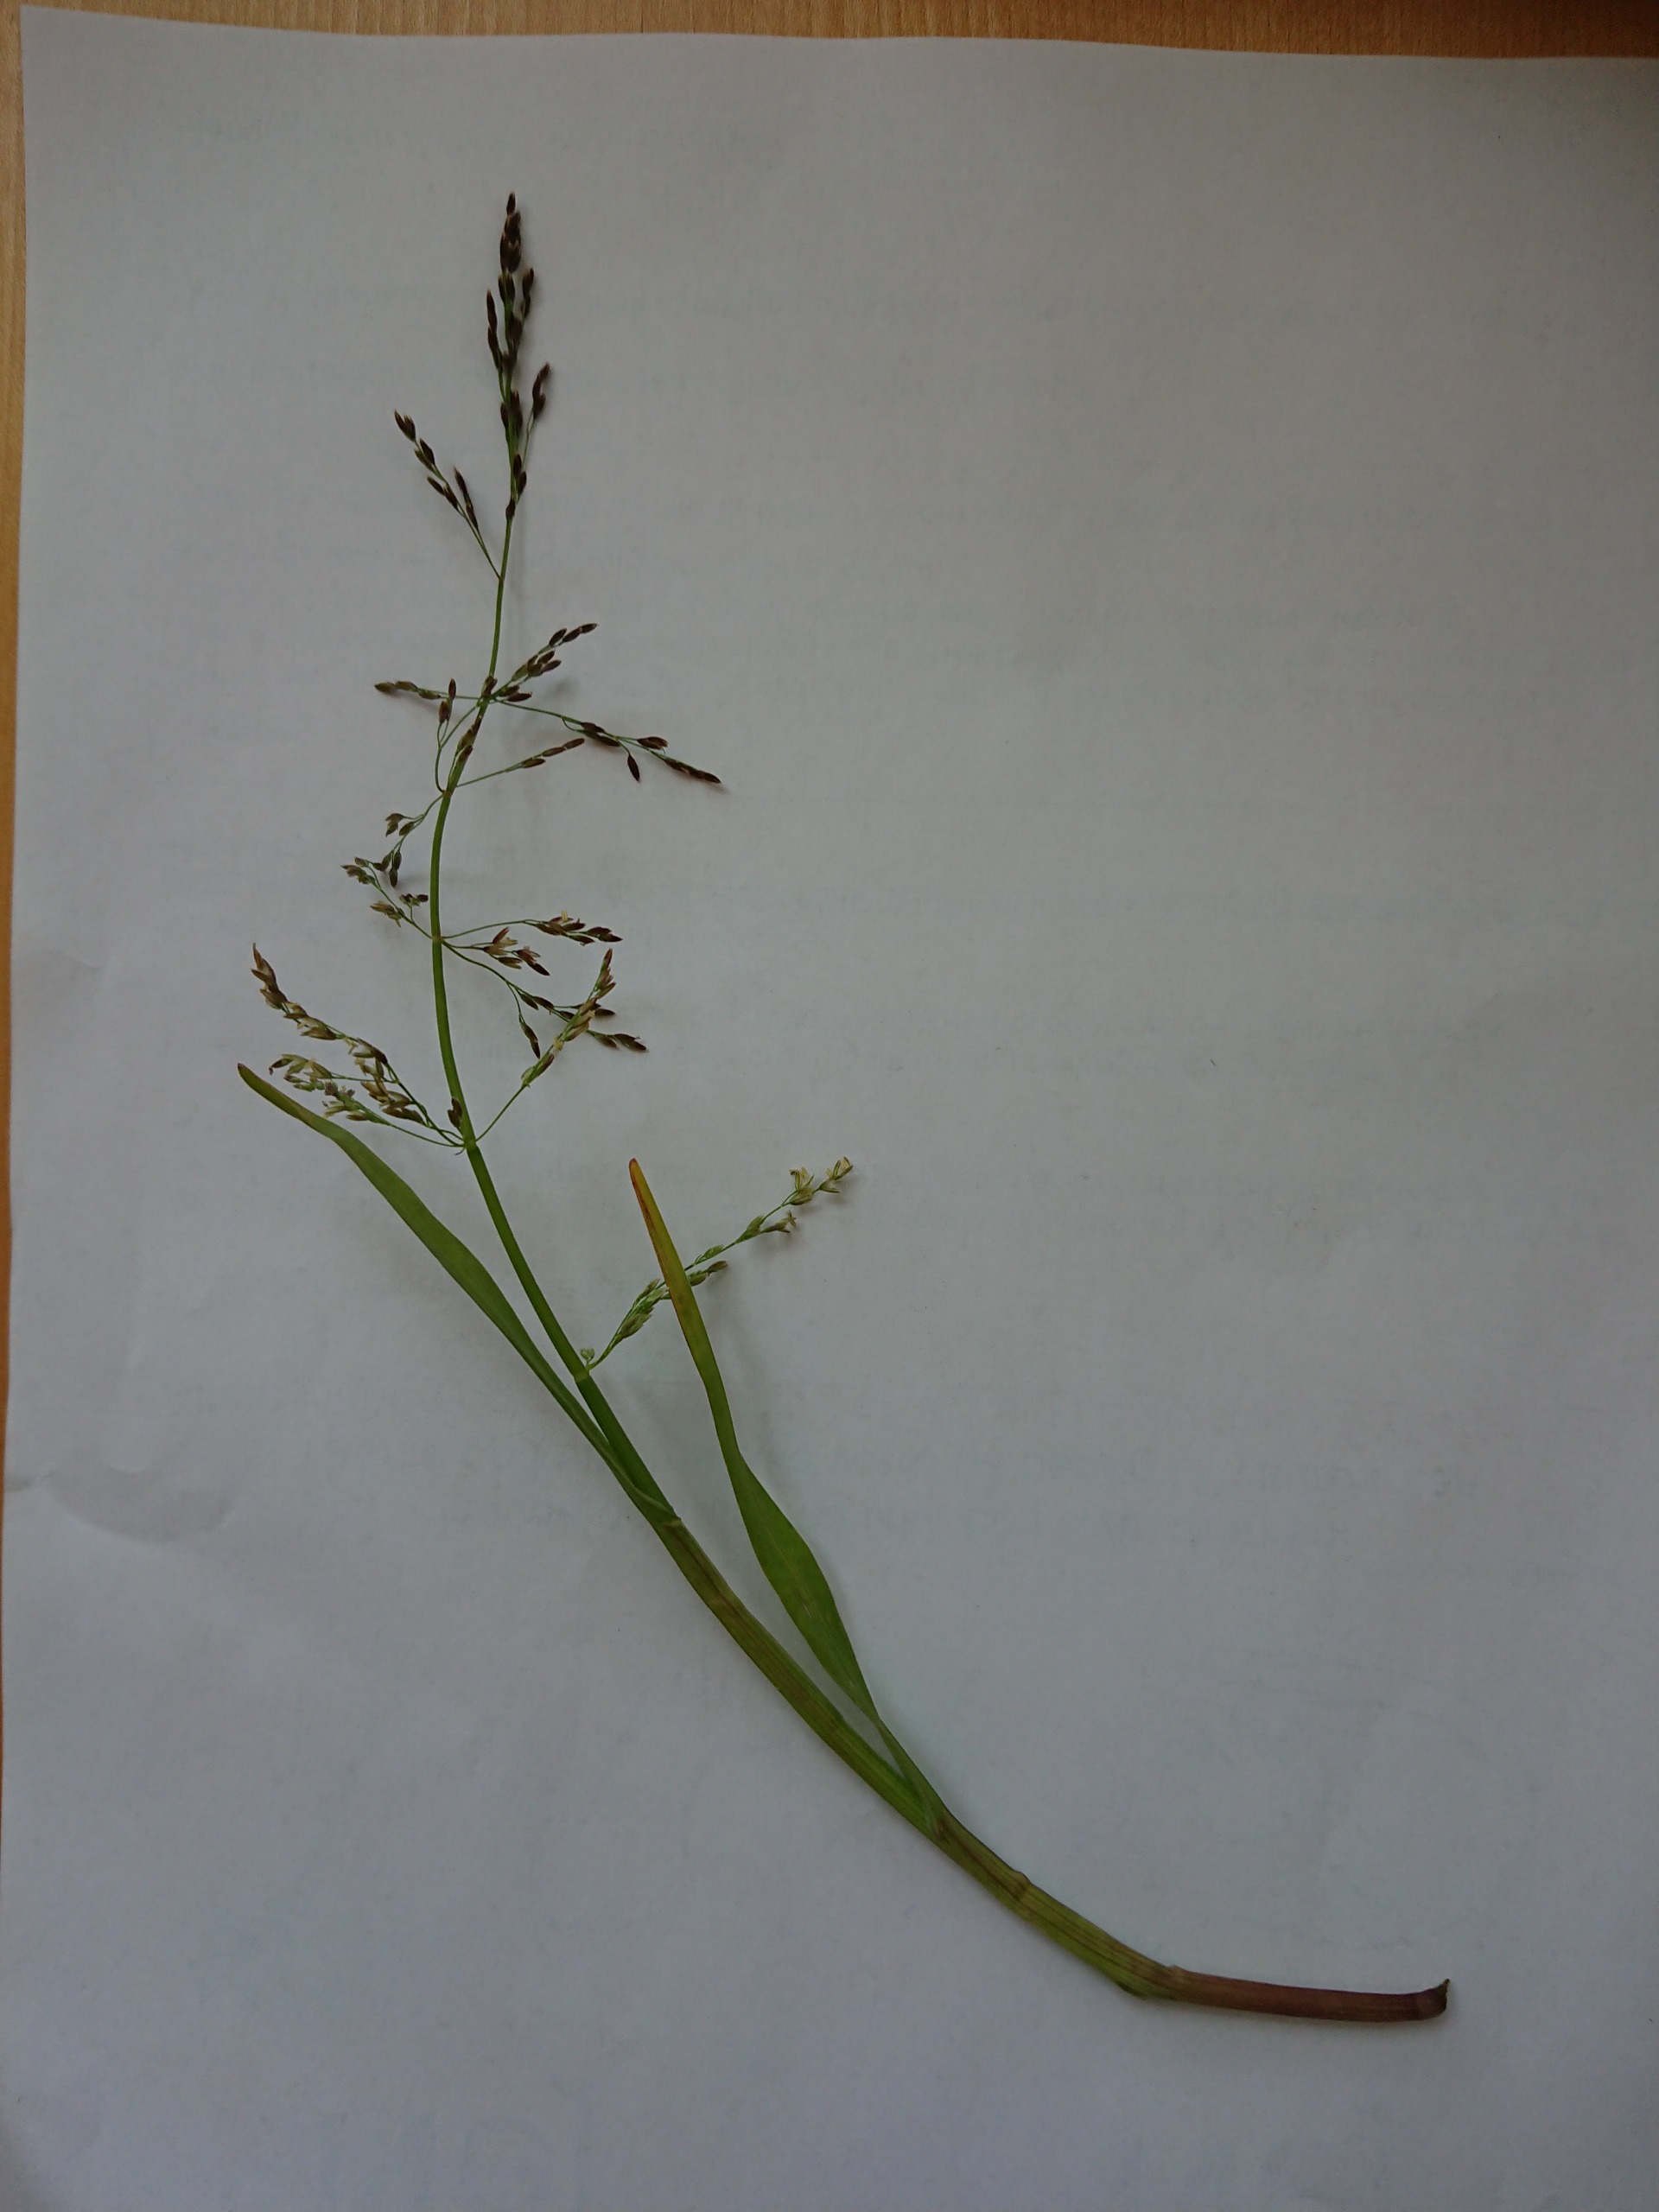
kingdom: Plantae
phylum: Tracheophyta
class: Liliopsida
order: Poales
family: Poaceae
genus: Catabrosa
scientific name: Catabrosa aquatica
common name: Tæppegræs
